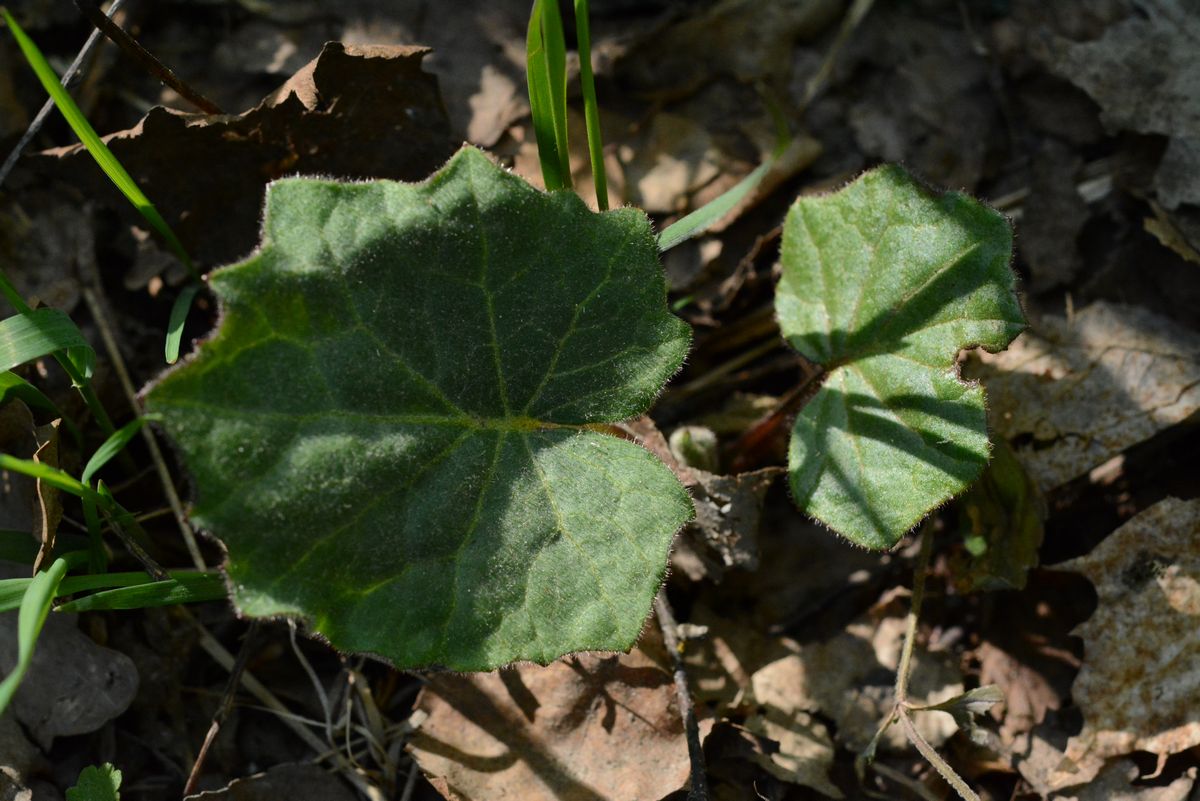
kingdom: Plantae
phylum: Tracheophyta
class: Magnoliopsida
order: Asterales
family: Asteraceae
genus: Tussilago
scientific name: Tussilago farfara
